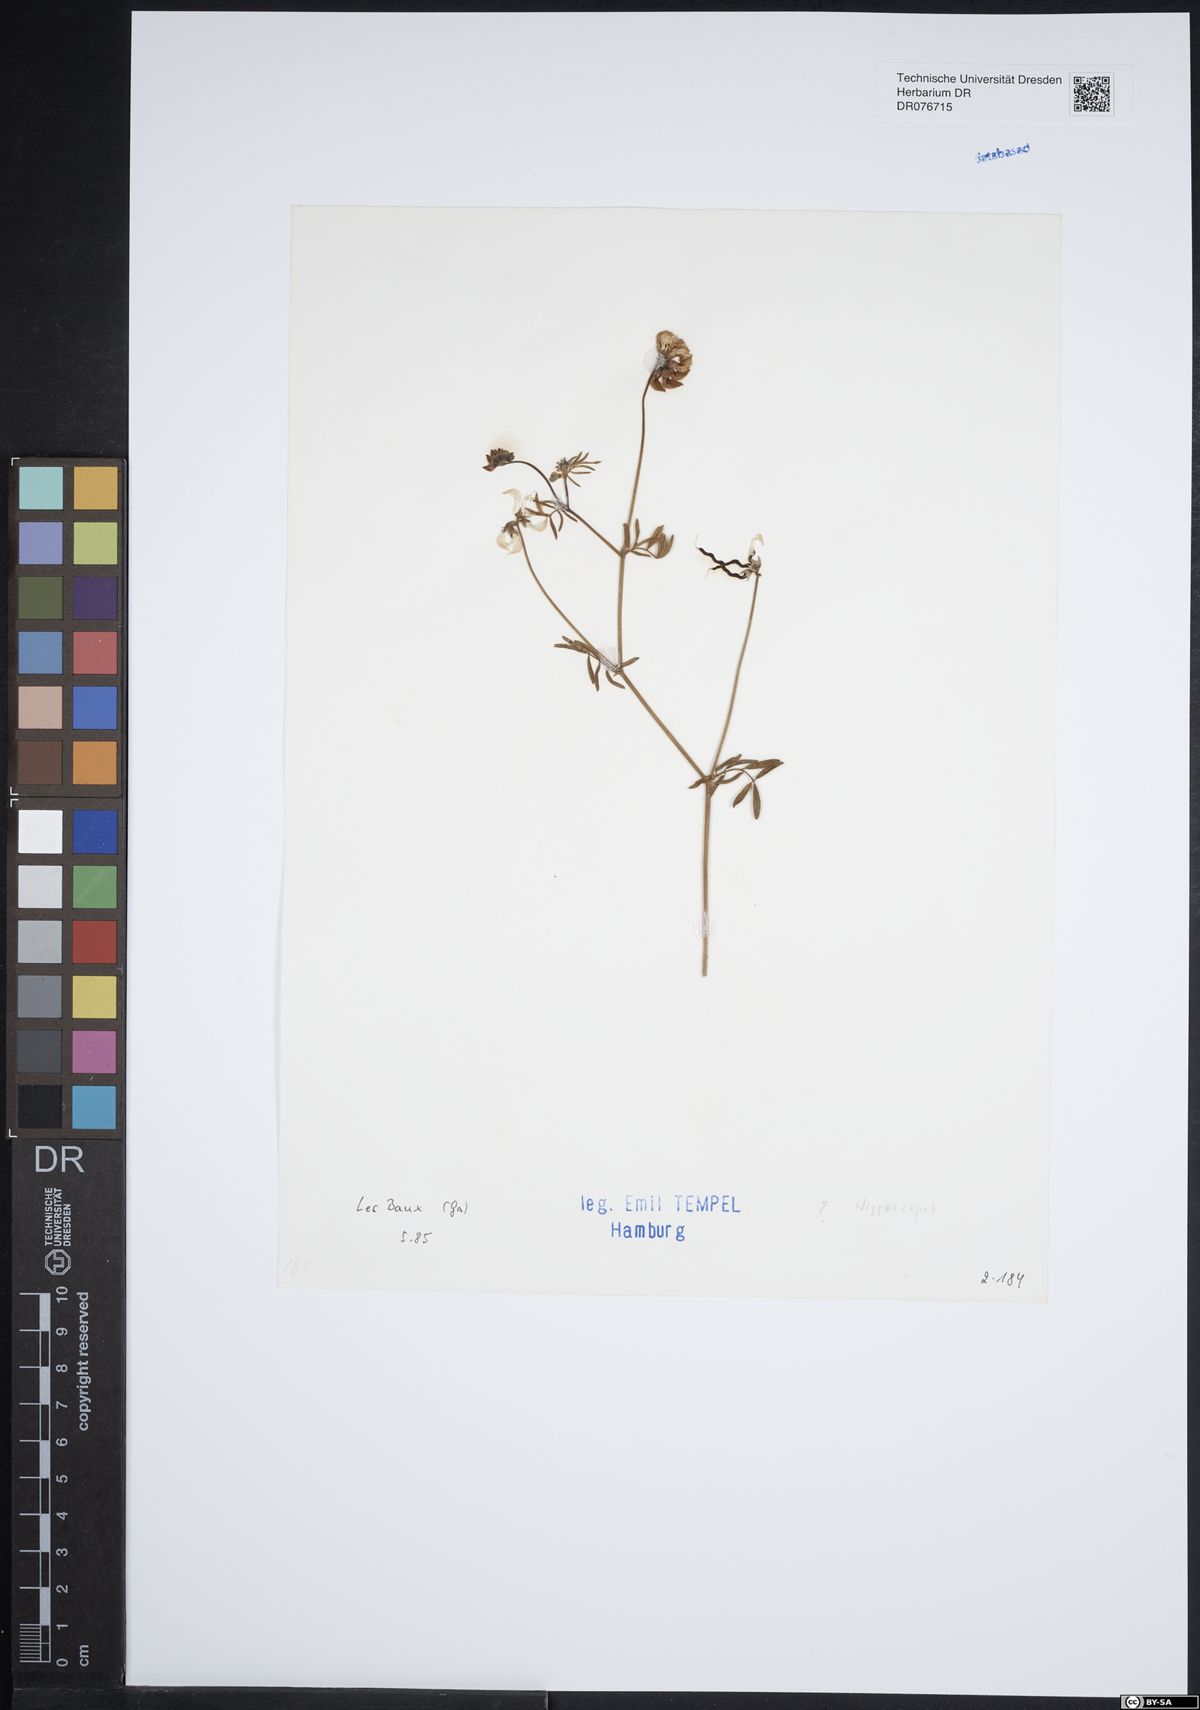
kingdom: Plantae
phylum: Tracheophyta
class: Magnoliopsida
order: Fabales
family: Fabaceae
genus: Hippocrepis
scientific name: Hippocrepis
